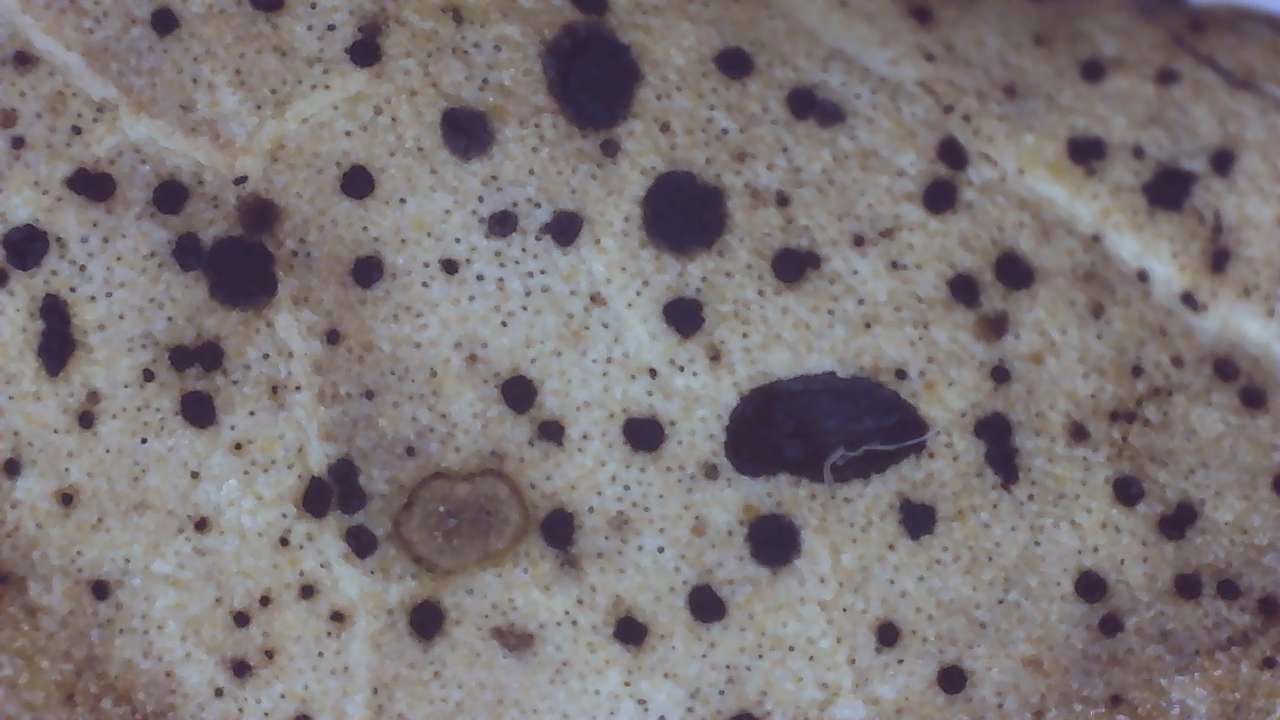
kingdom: Fungi
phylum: Ascomycota
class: Leotiomycetes
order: Rhytismatales
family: Rhytismataceae
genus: Hypoderma
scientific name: Hypoderma hederae
